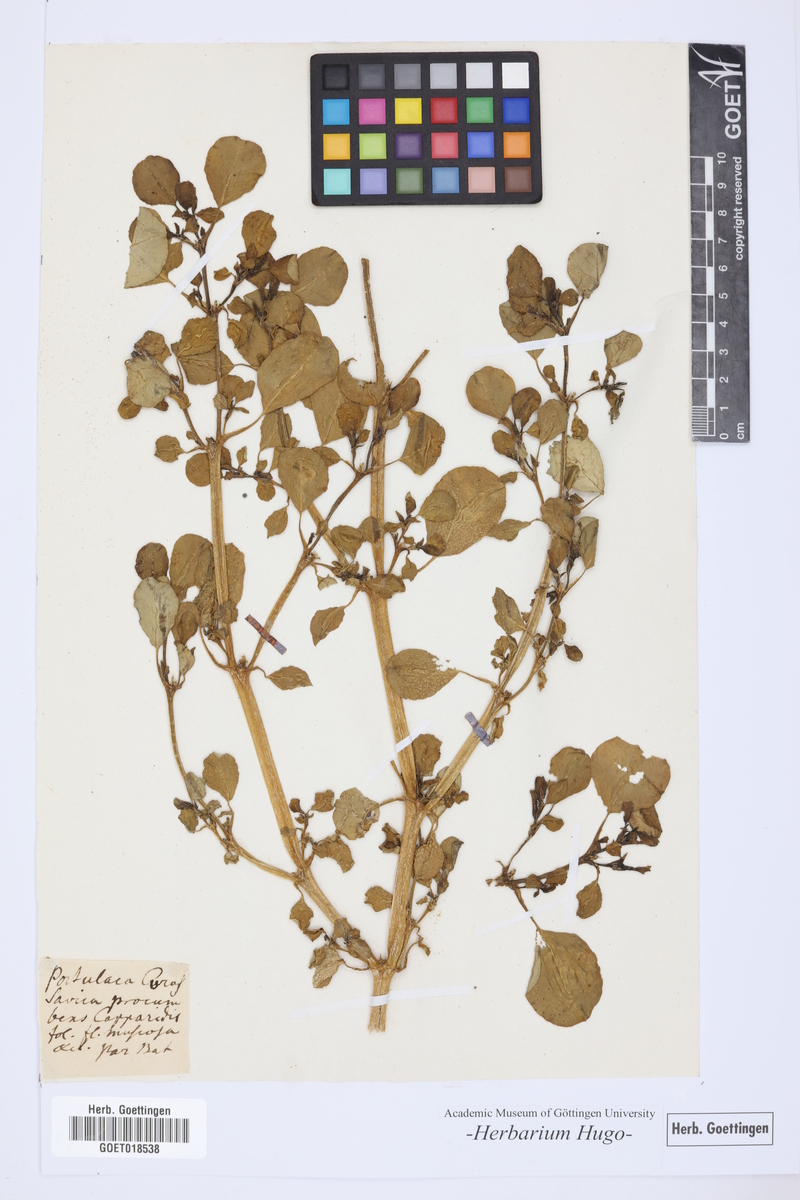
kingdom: Plantae
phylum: Tracheophyta
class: Magnoliopsida
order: Caryophyllales
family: Aizoaceae
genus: Trianthema
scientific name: Trianthema portulacastrum
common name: Desert horsepurslane
